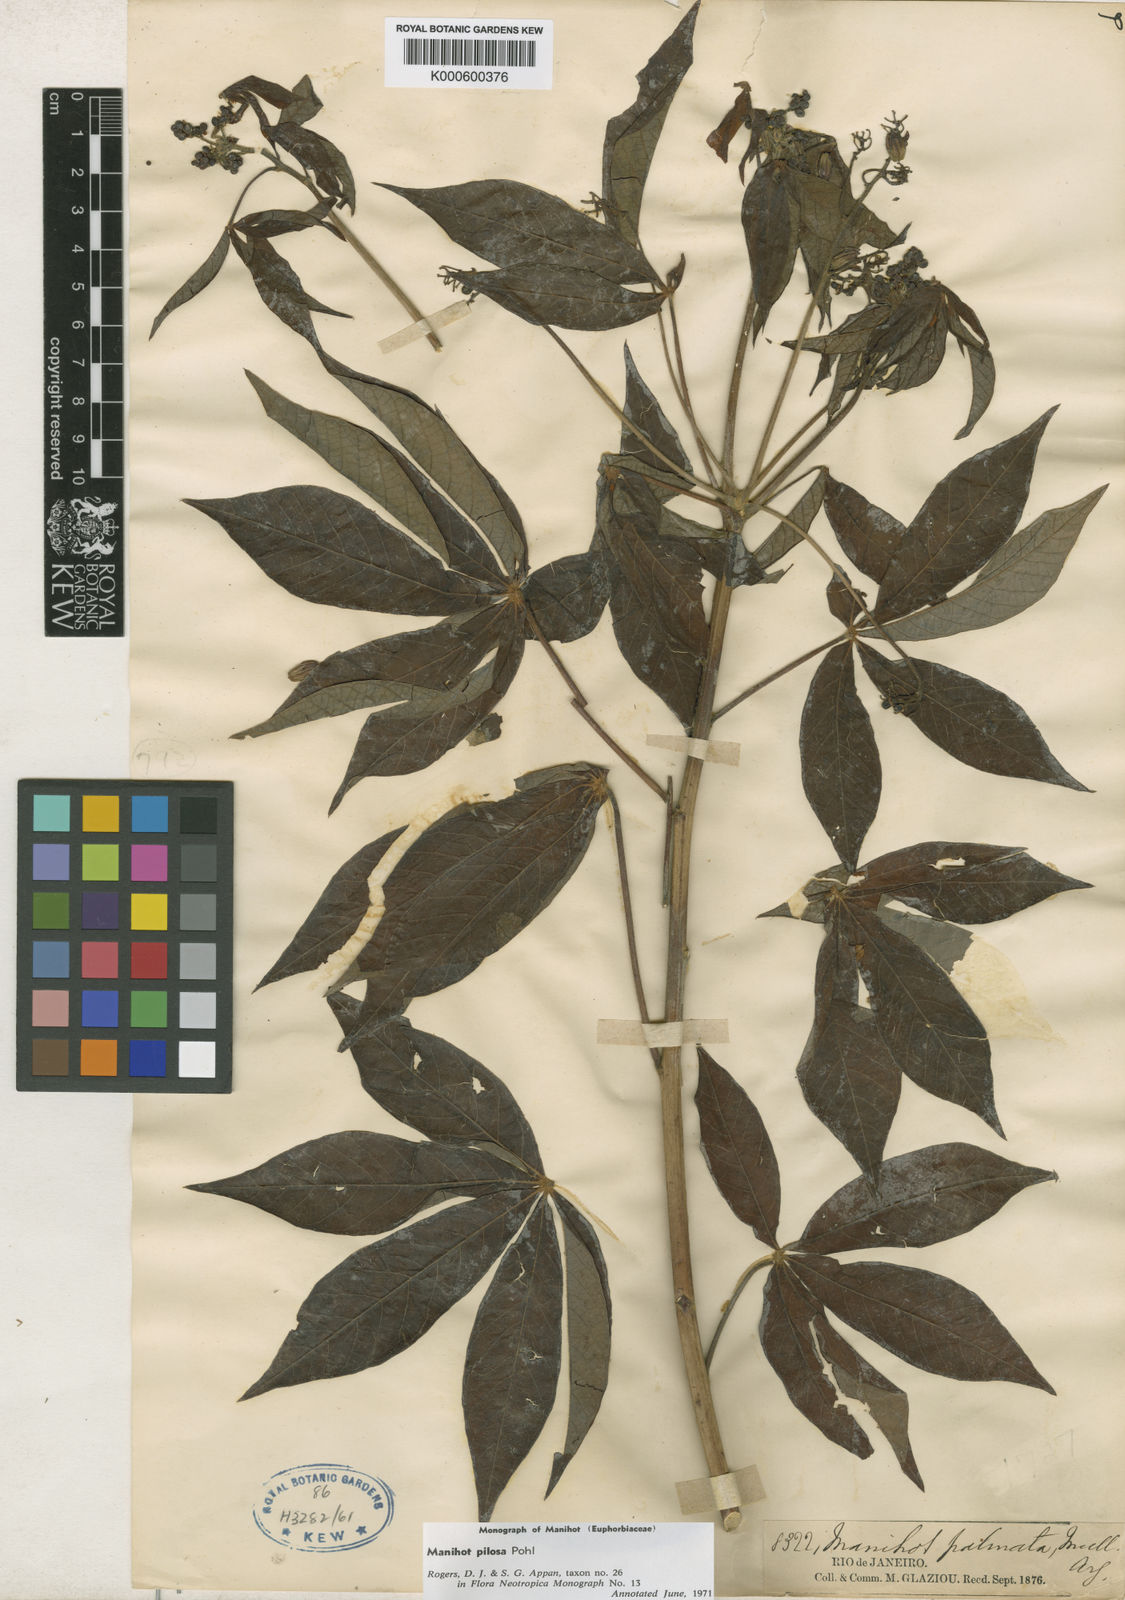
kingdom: Plantae
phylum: Tracheophyta
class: Magnoliopsida
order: Malpighiales
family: Euphorbiaceae
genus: Manihot
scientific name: Manihot pilosa
